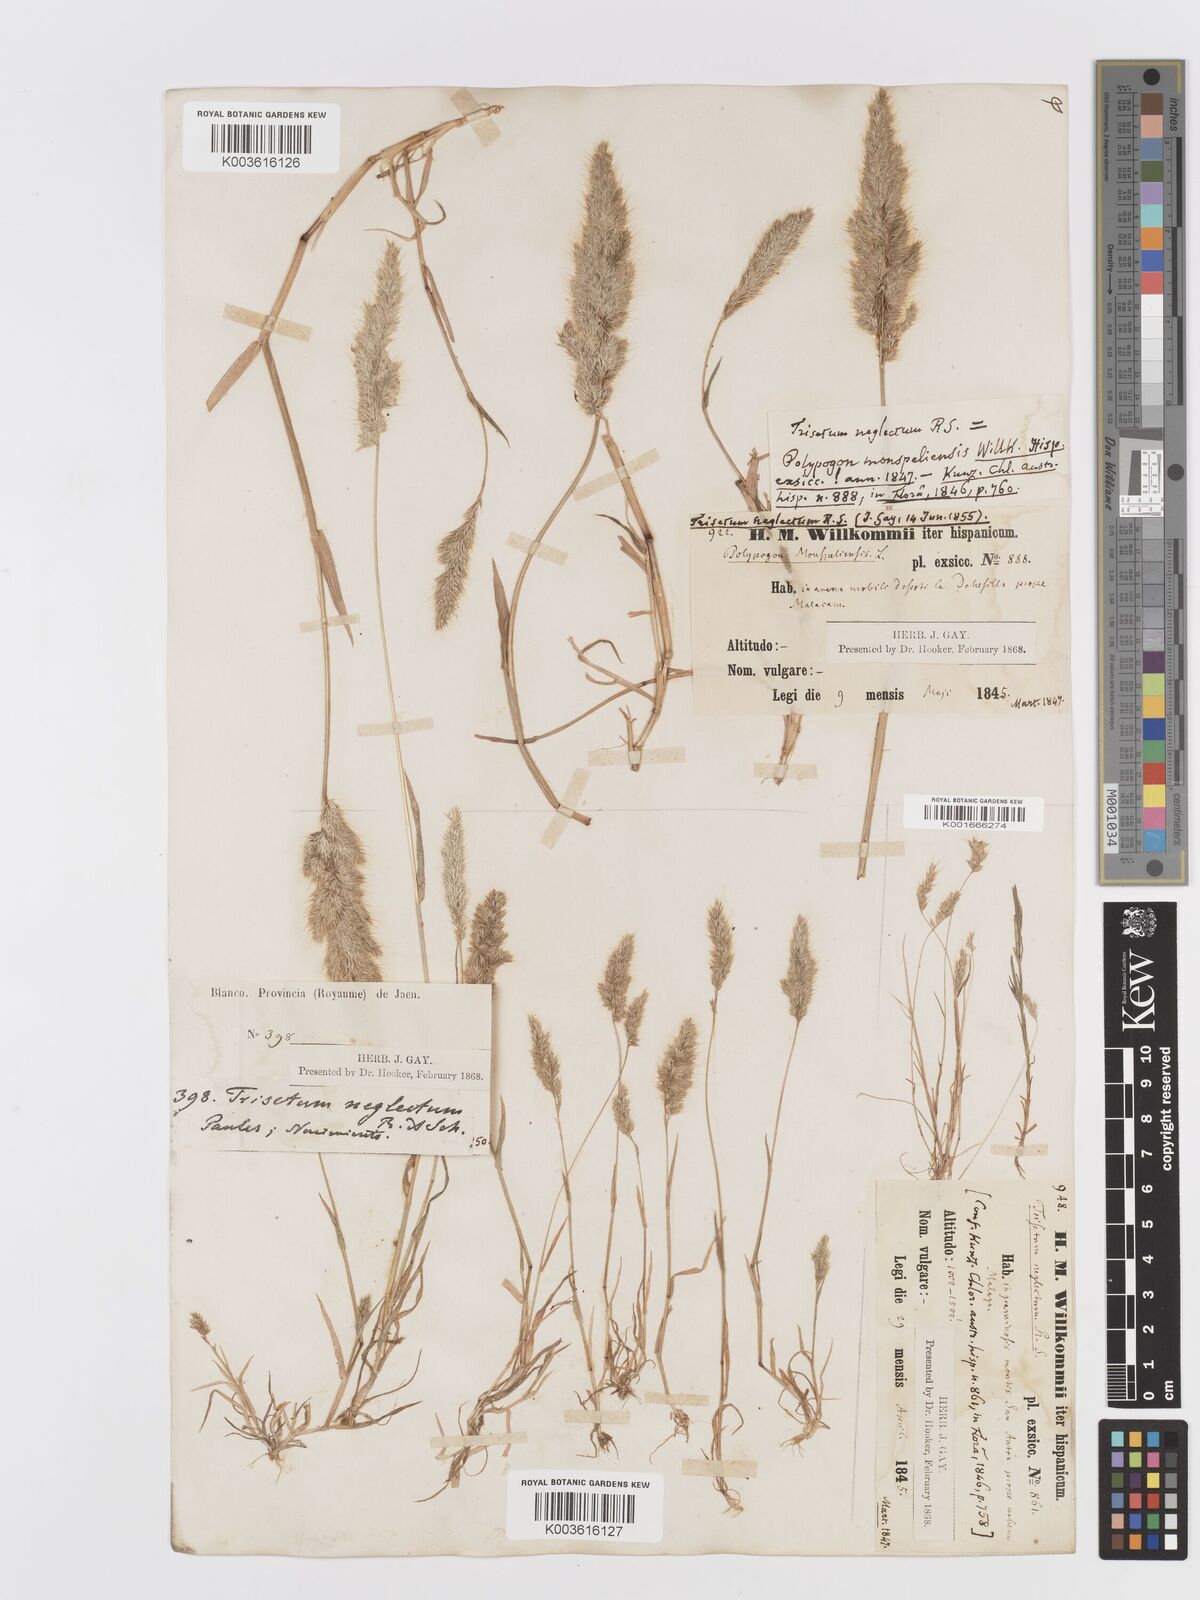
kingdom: Plantae
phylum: Tracheophyta
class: Liliopsida
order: Poales
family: Poaceae
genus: Trisetaria
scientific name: Trisetaria panicea
